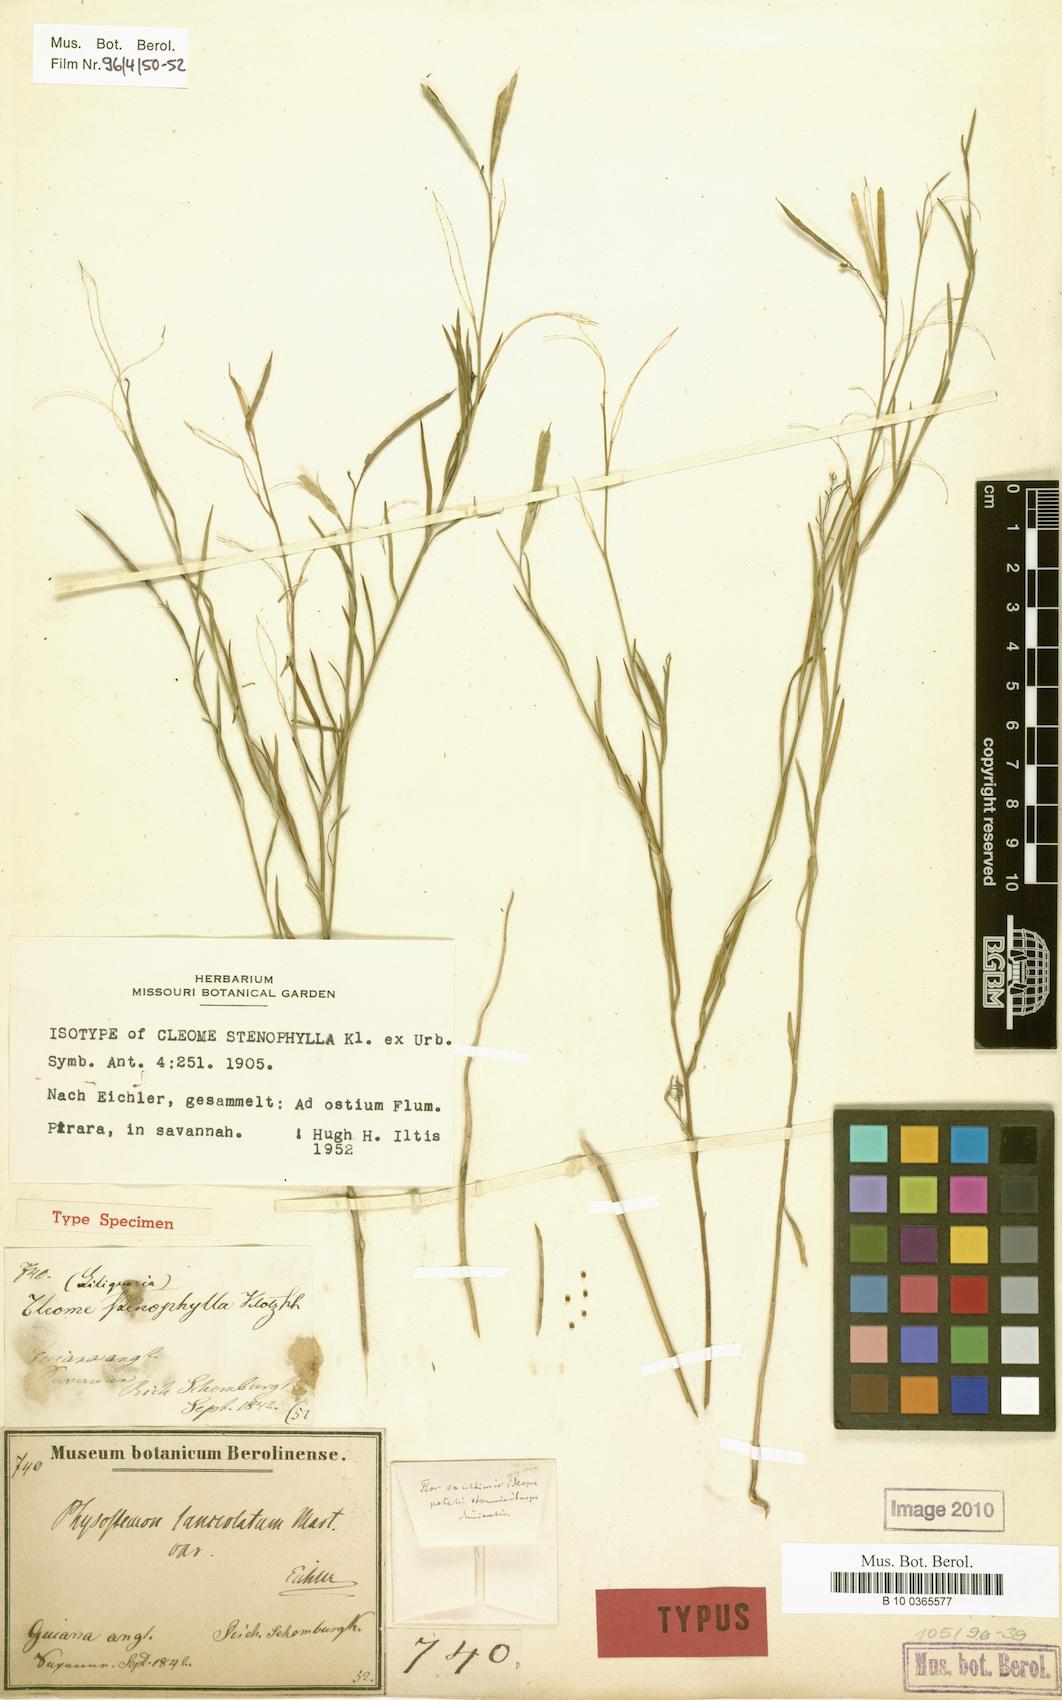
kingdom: Plantae
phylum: Tracheophyta
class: Magnoliopsida
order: Brassicales
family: Cleomaceae
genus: Physostemon
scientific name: Physostemon stenophyllus
